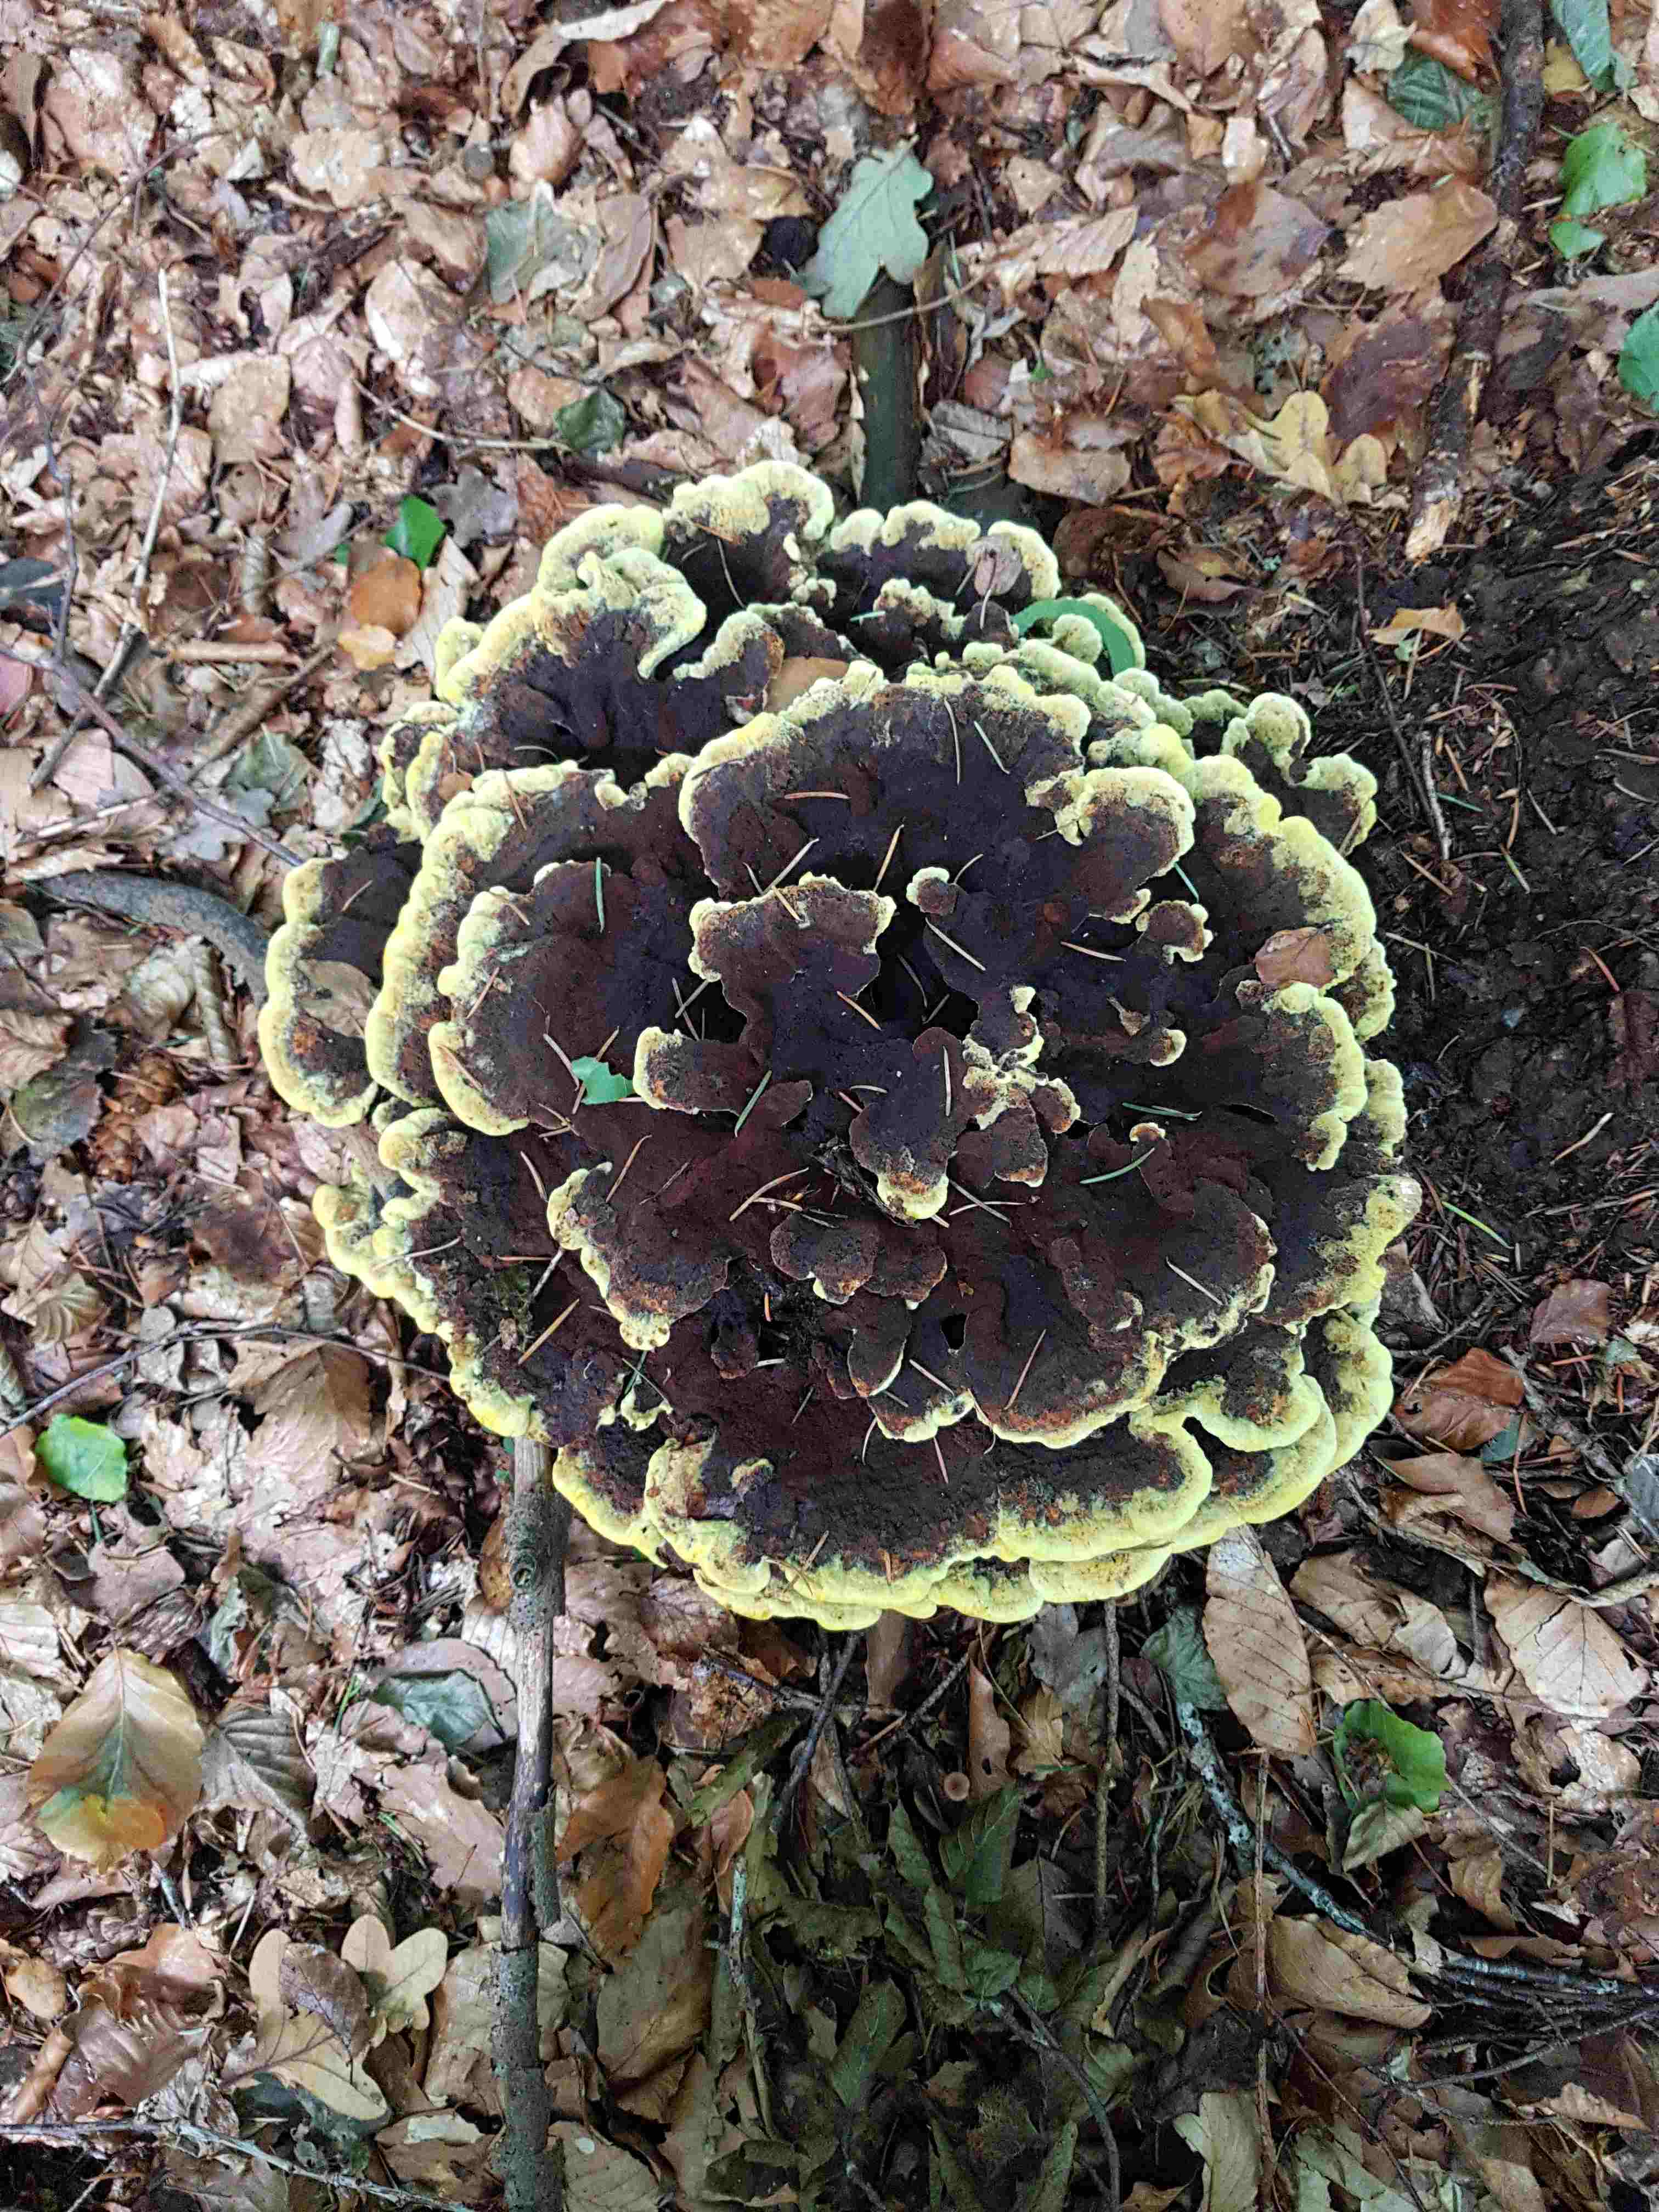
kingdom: Fungi
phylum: Basidiomycota
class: Agaricomycetes
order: Polyporales
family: Laetiporaceae
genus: Phaeolus
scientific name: Phaeolus schweinitzii
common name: brunporesvamp
